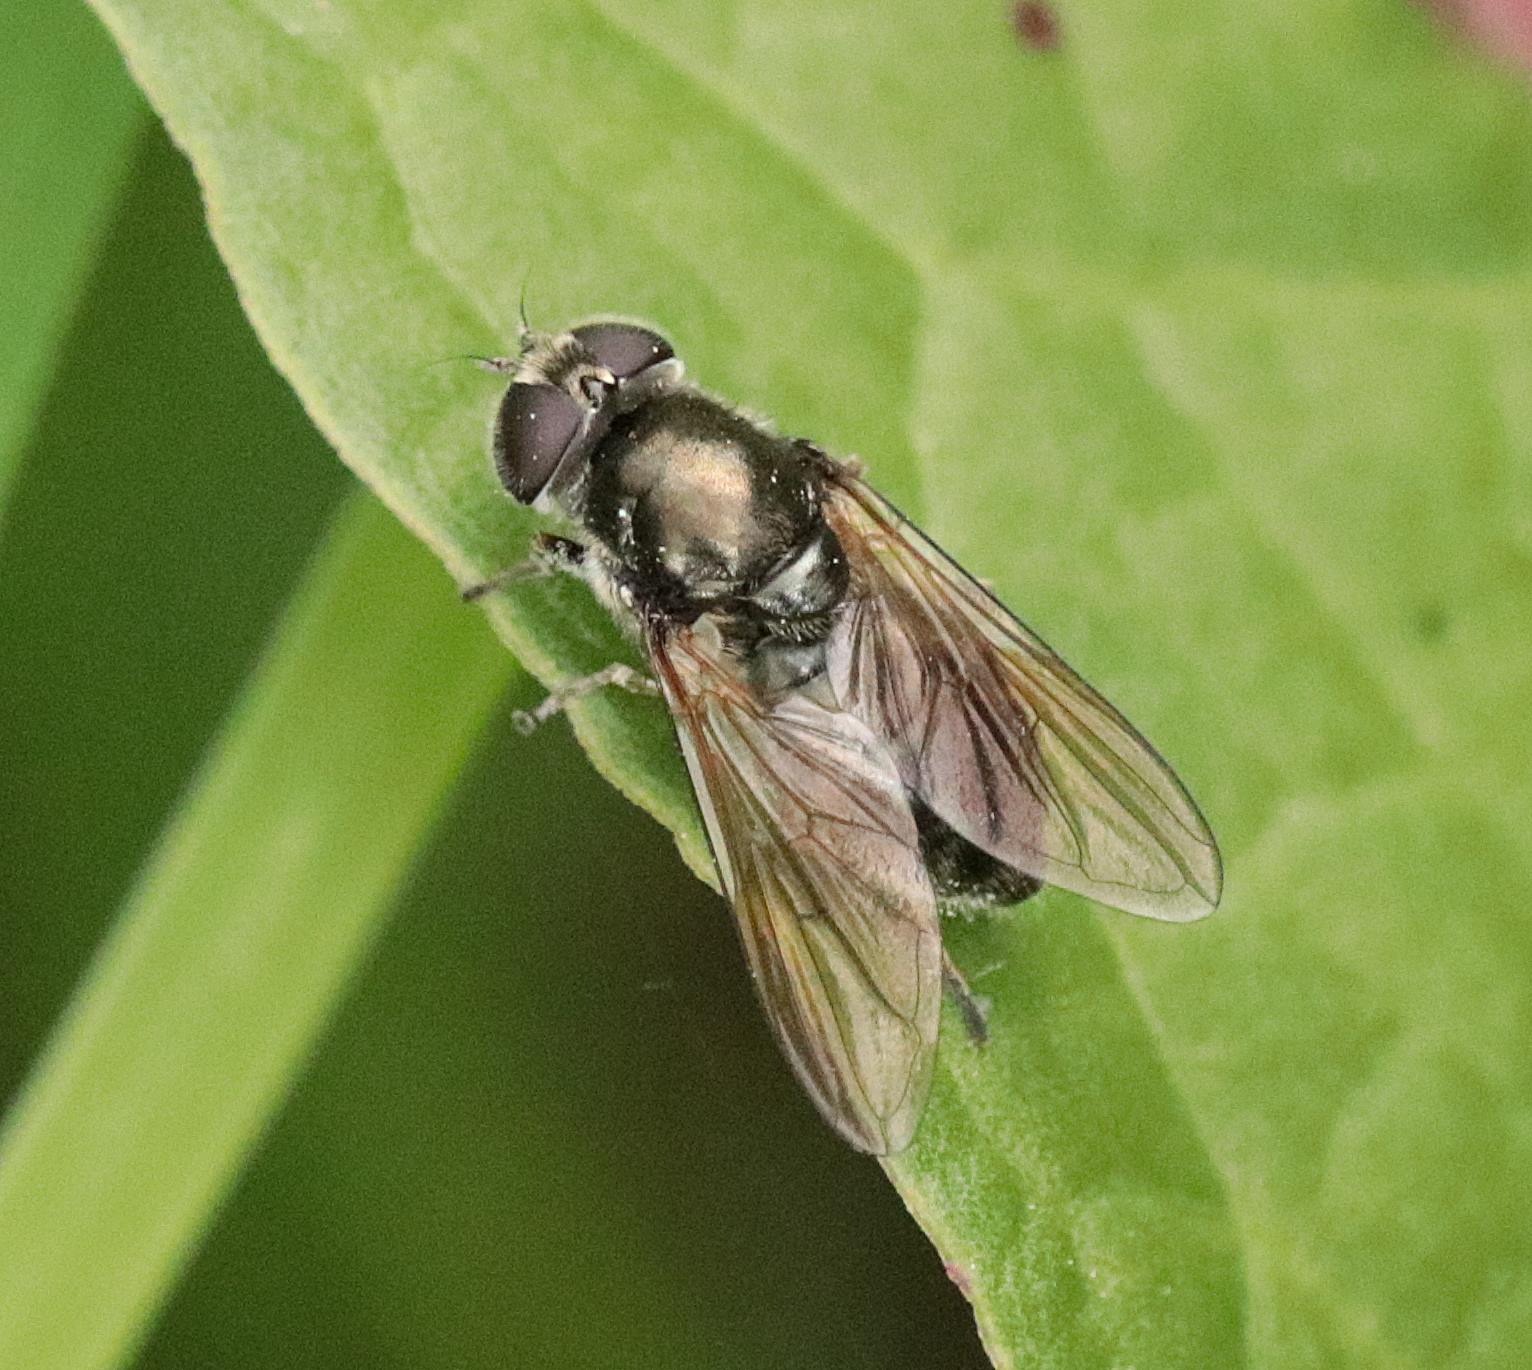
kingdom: Animalia
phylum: Arthropoda
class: Insecta
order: Diptera
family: Syrphidae
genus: Cheilosia
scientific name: Cheilosia
